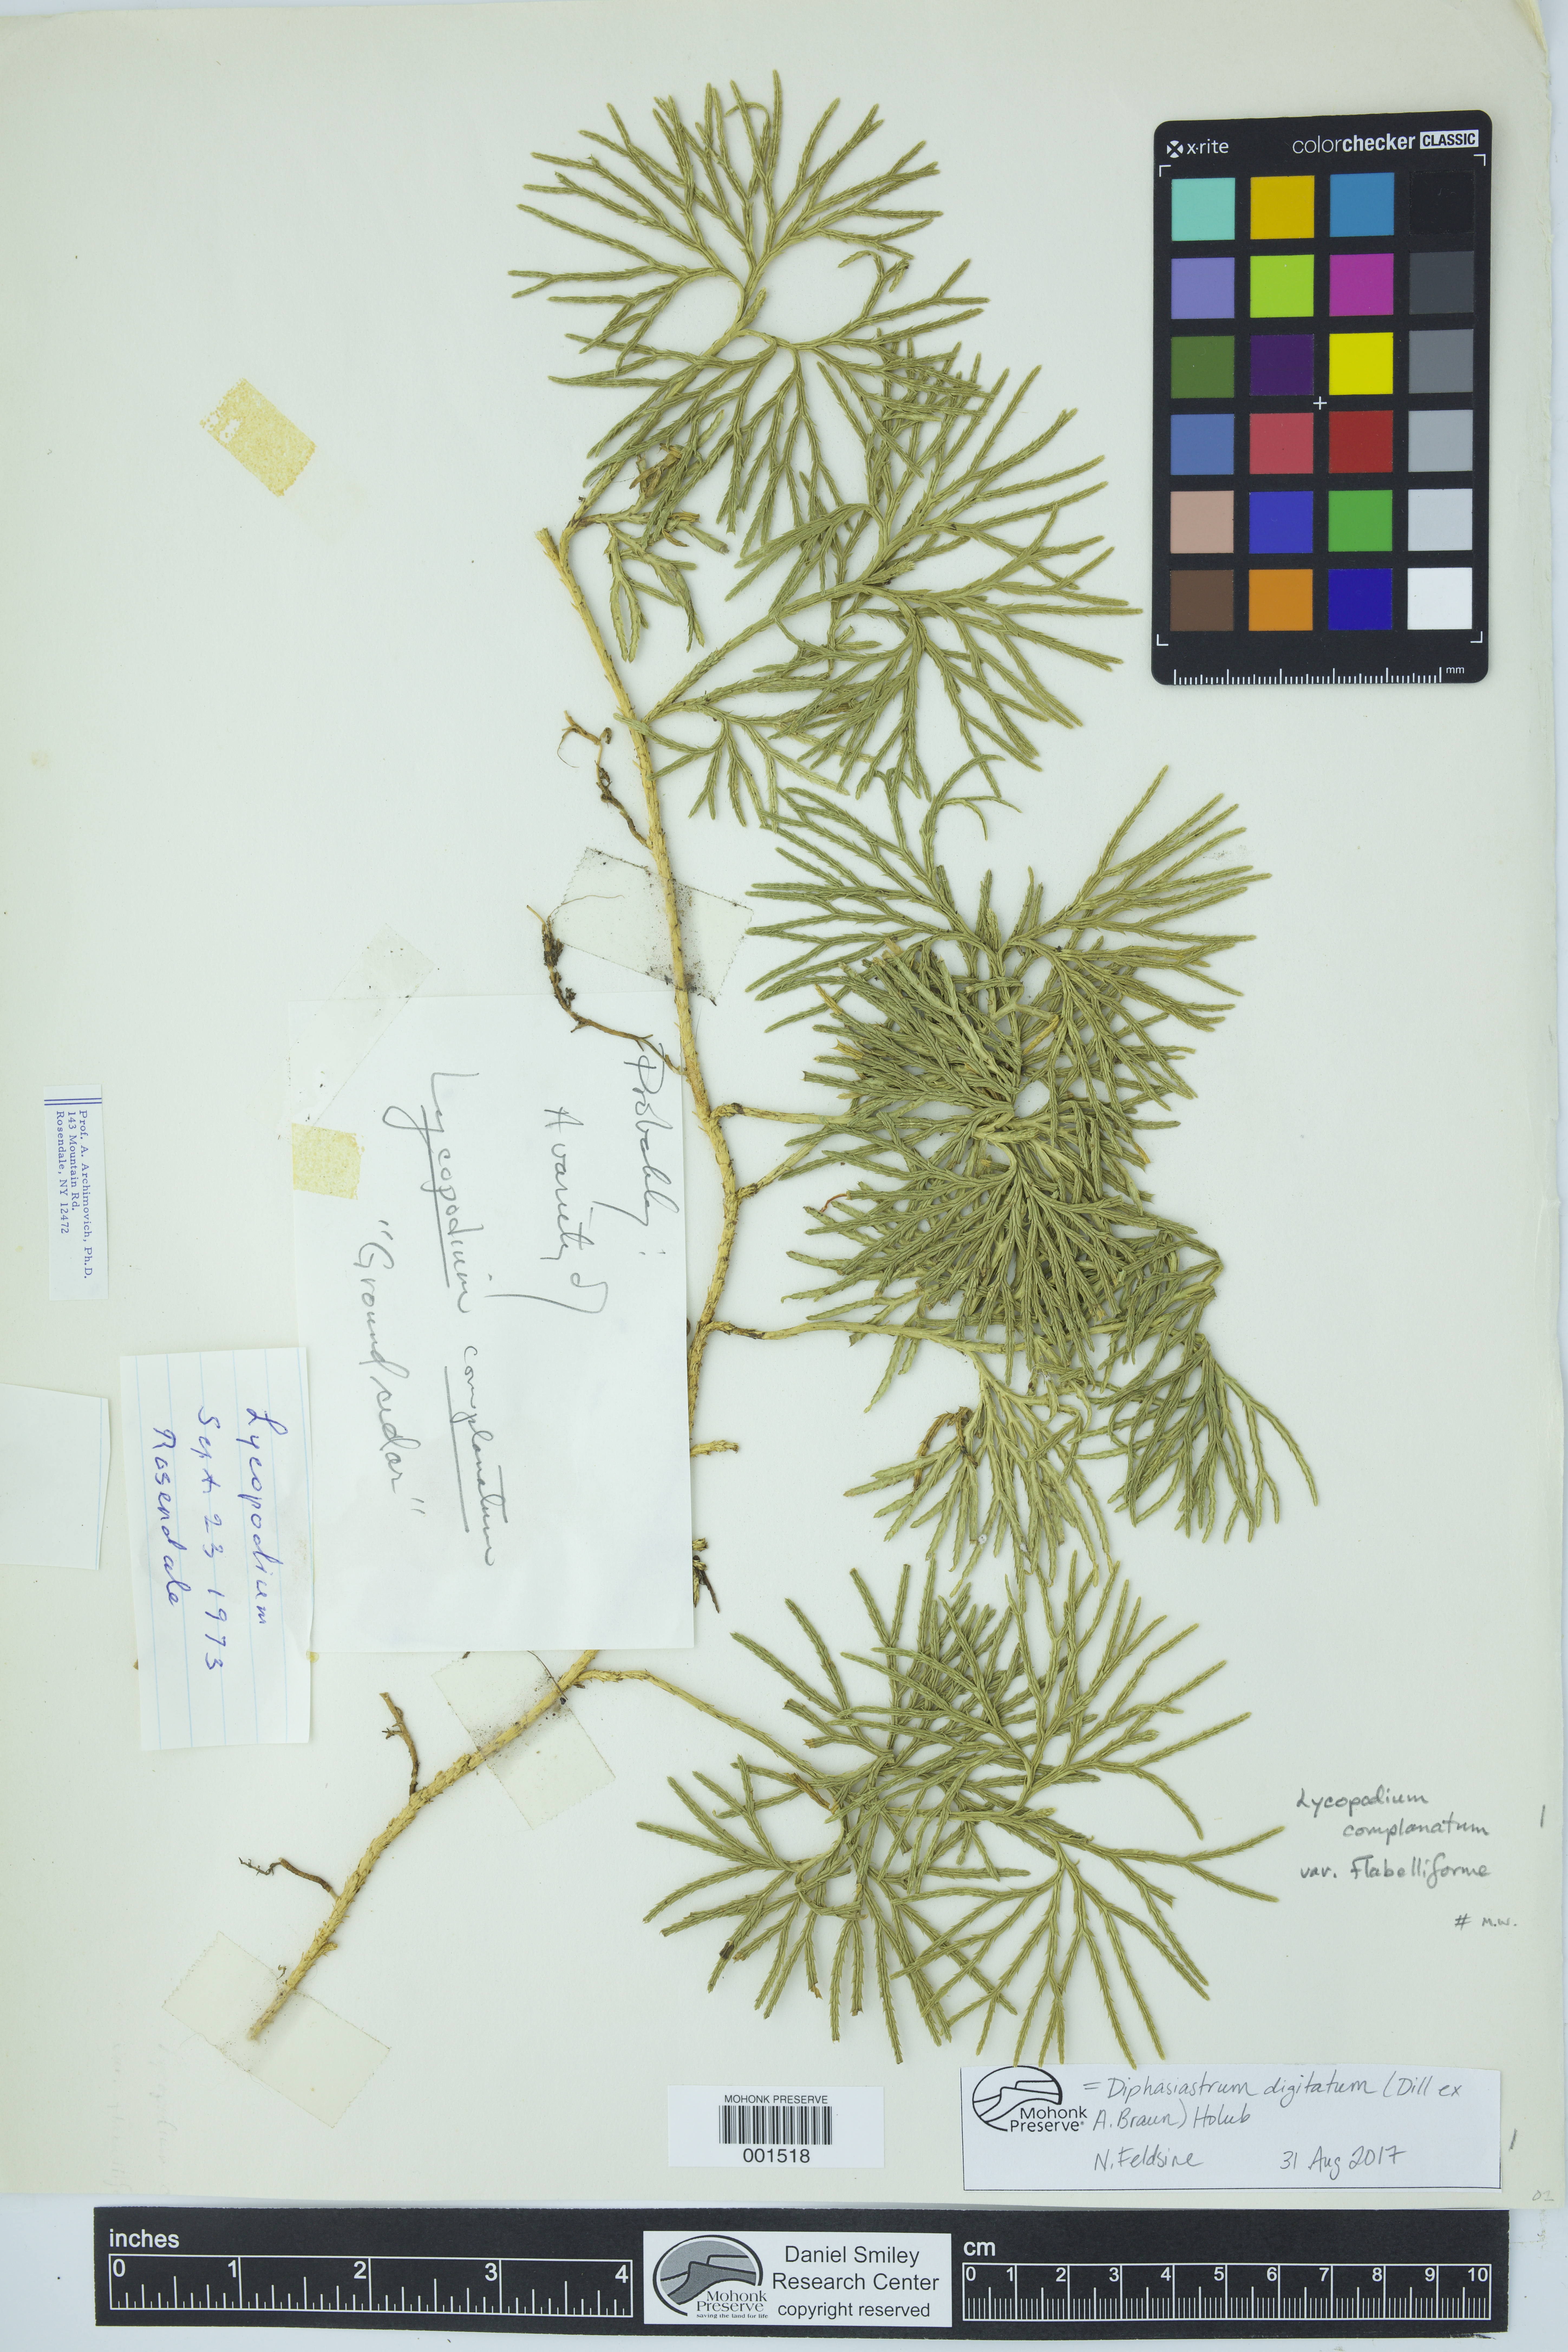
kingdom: Plantae
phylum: Tracheophyta
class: Lycopodiopsida
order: Lycopodiales
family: Lycopodiaceae
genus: Diphasiastrum
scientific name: Diphasiastrum digitatum
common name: Southern running-pine
